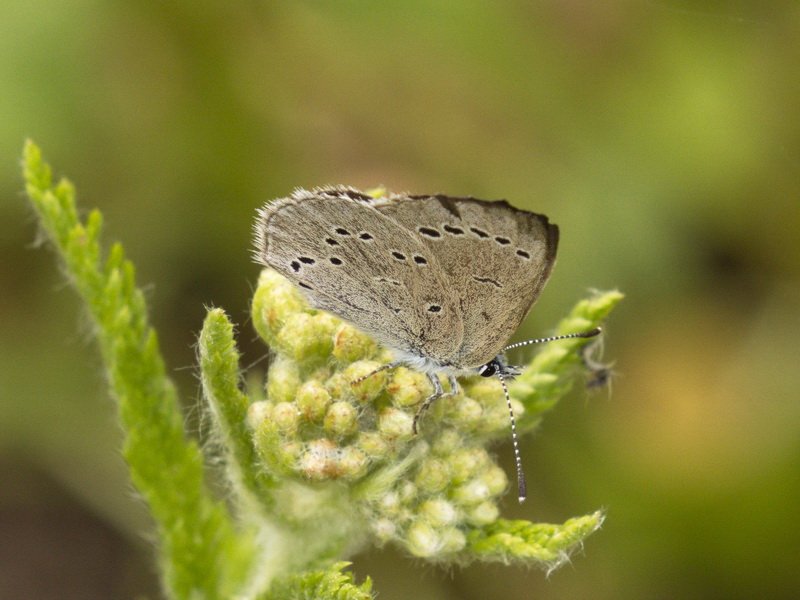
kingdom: Animalia
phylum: Arthropoda
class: Insecta
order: Lepidoptera
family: Lycaenidae
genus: Glaucopsyche
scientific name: Glaucopsyche lygdamus
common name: Silvery Blue
